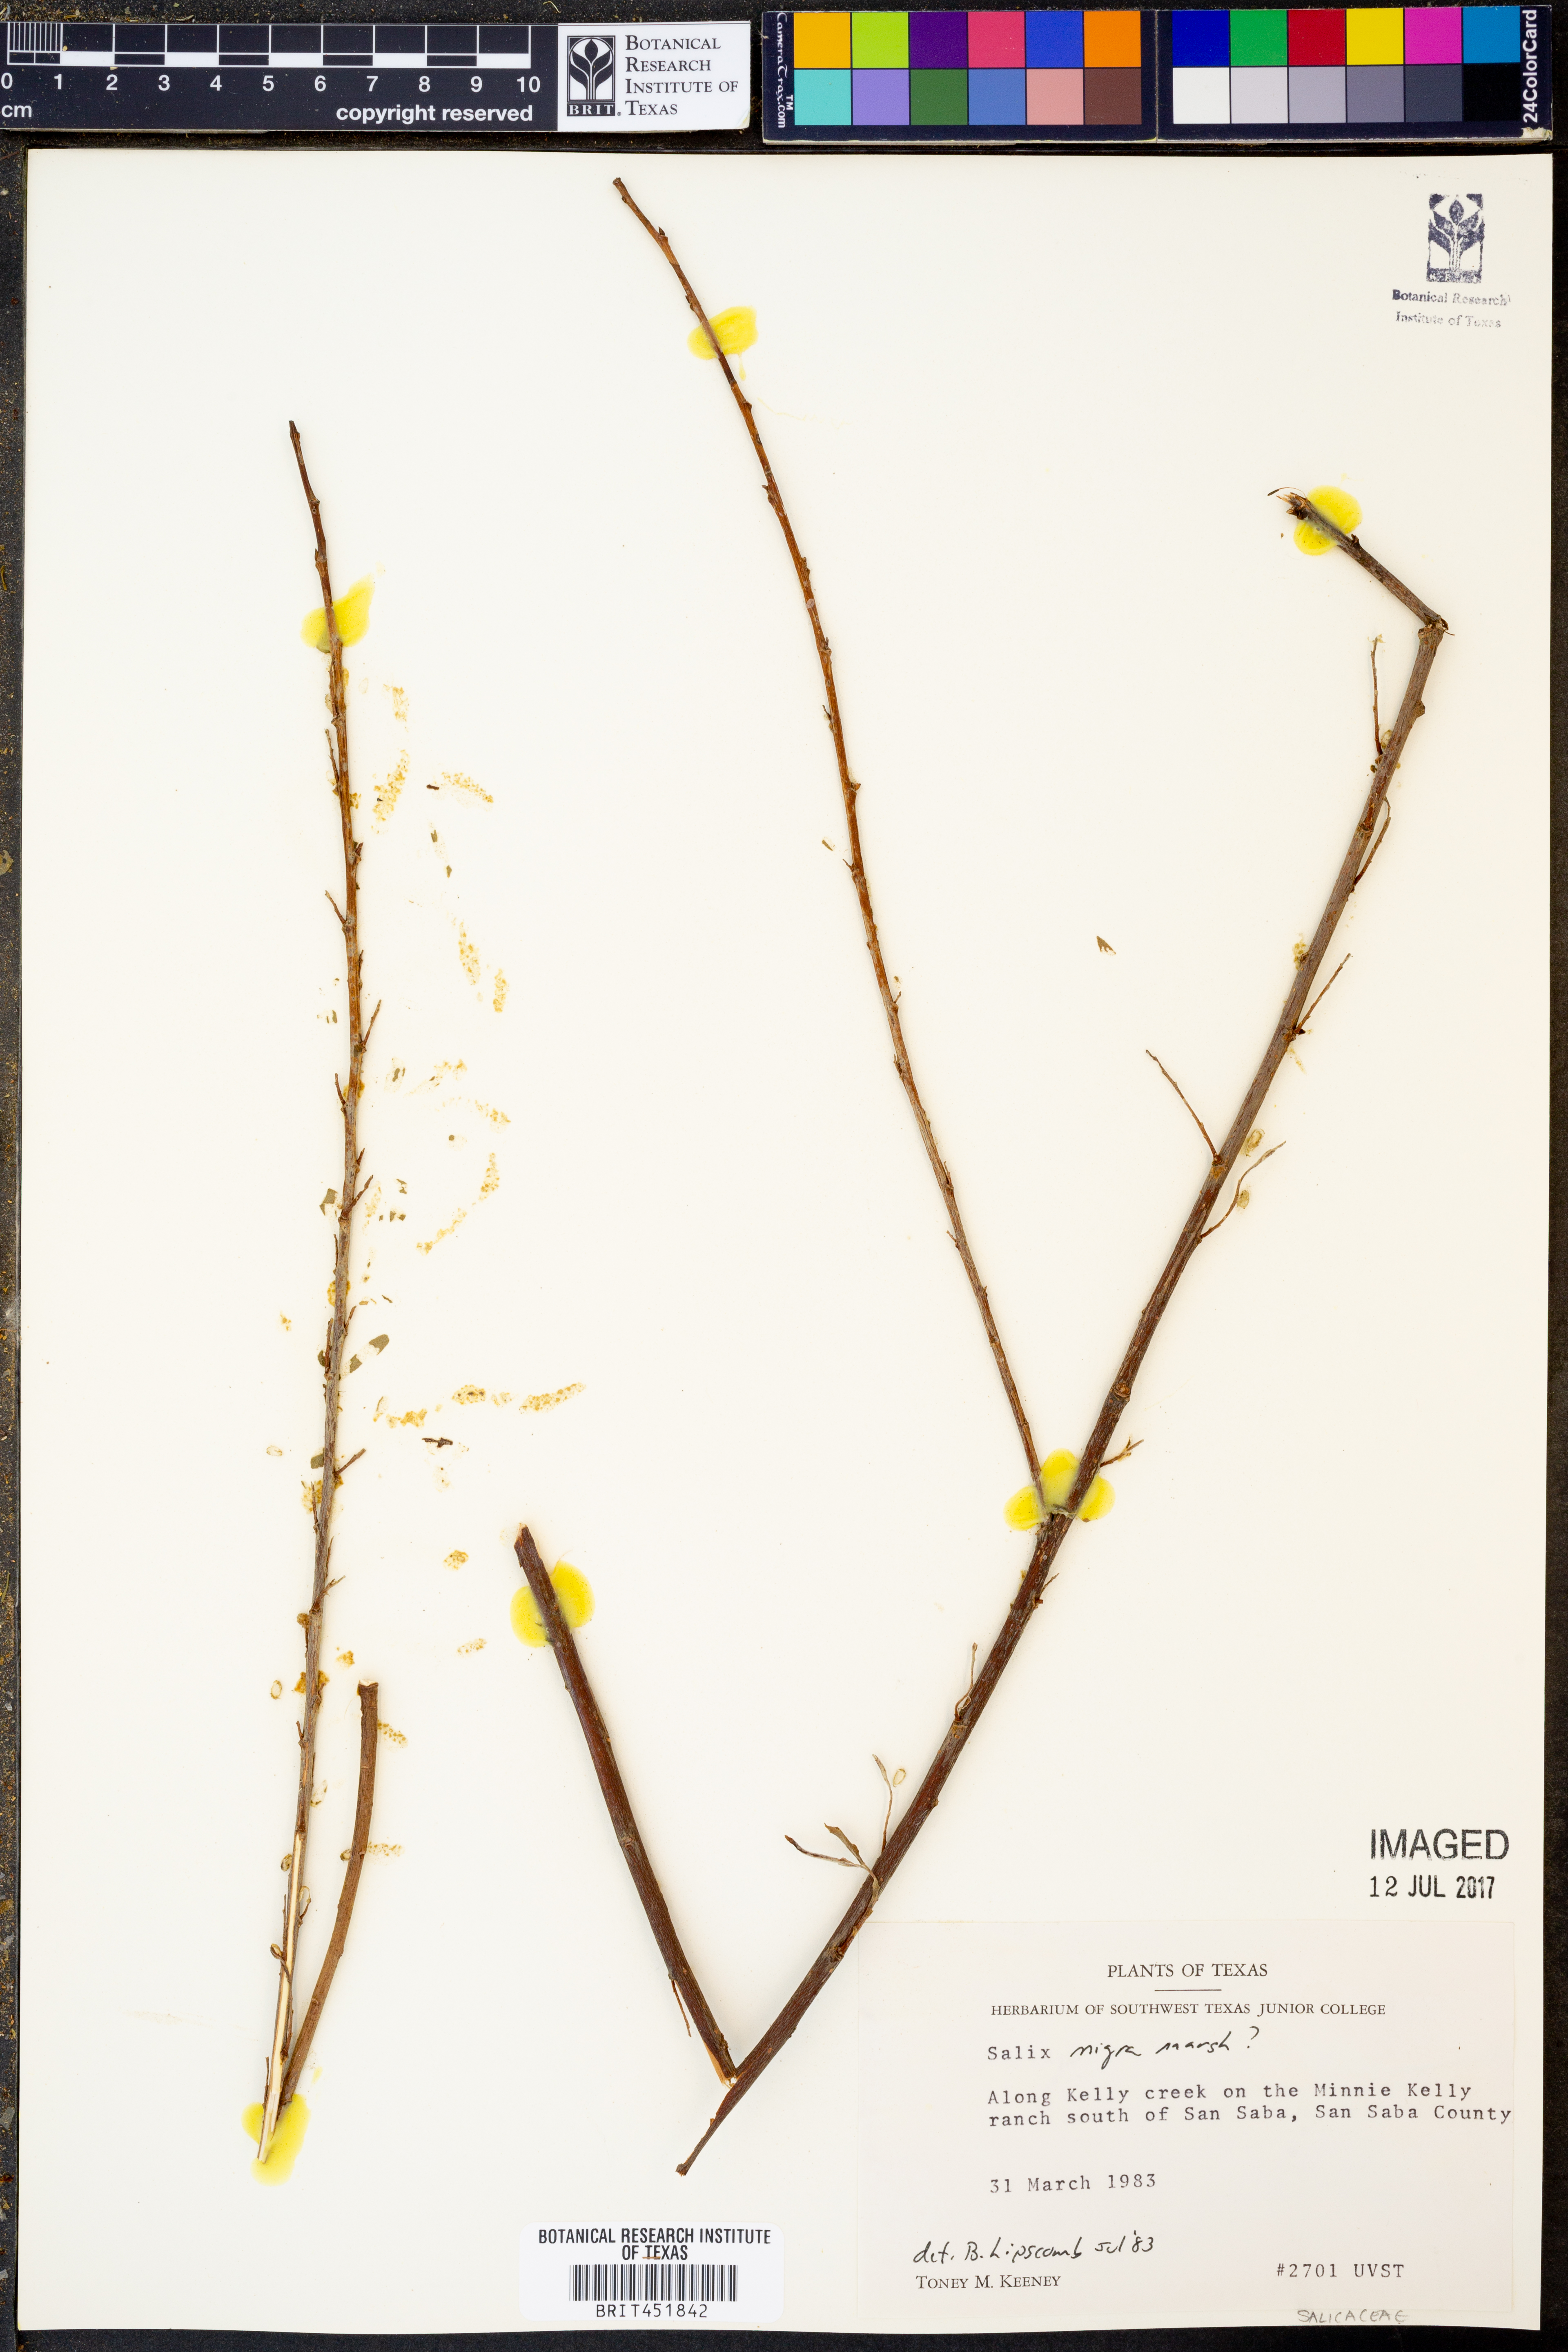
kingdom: Plantae
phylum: Tracheophyta
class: Magnoliopsida
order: Malpighiales
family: Salicaceae
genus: Salix
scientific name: Salix nigra
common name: Black willow
